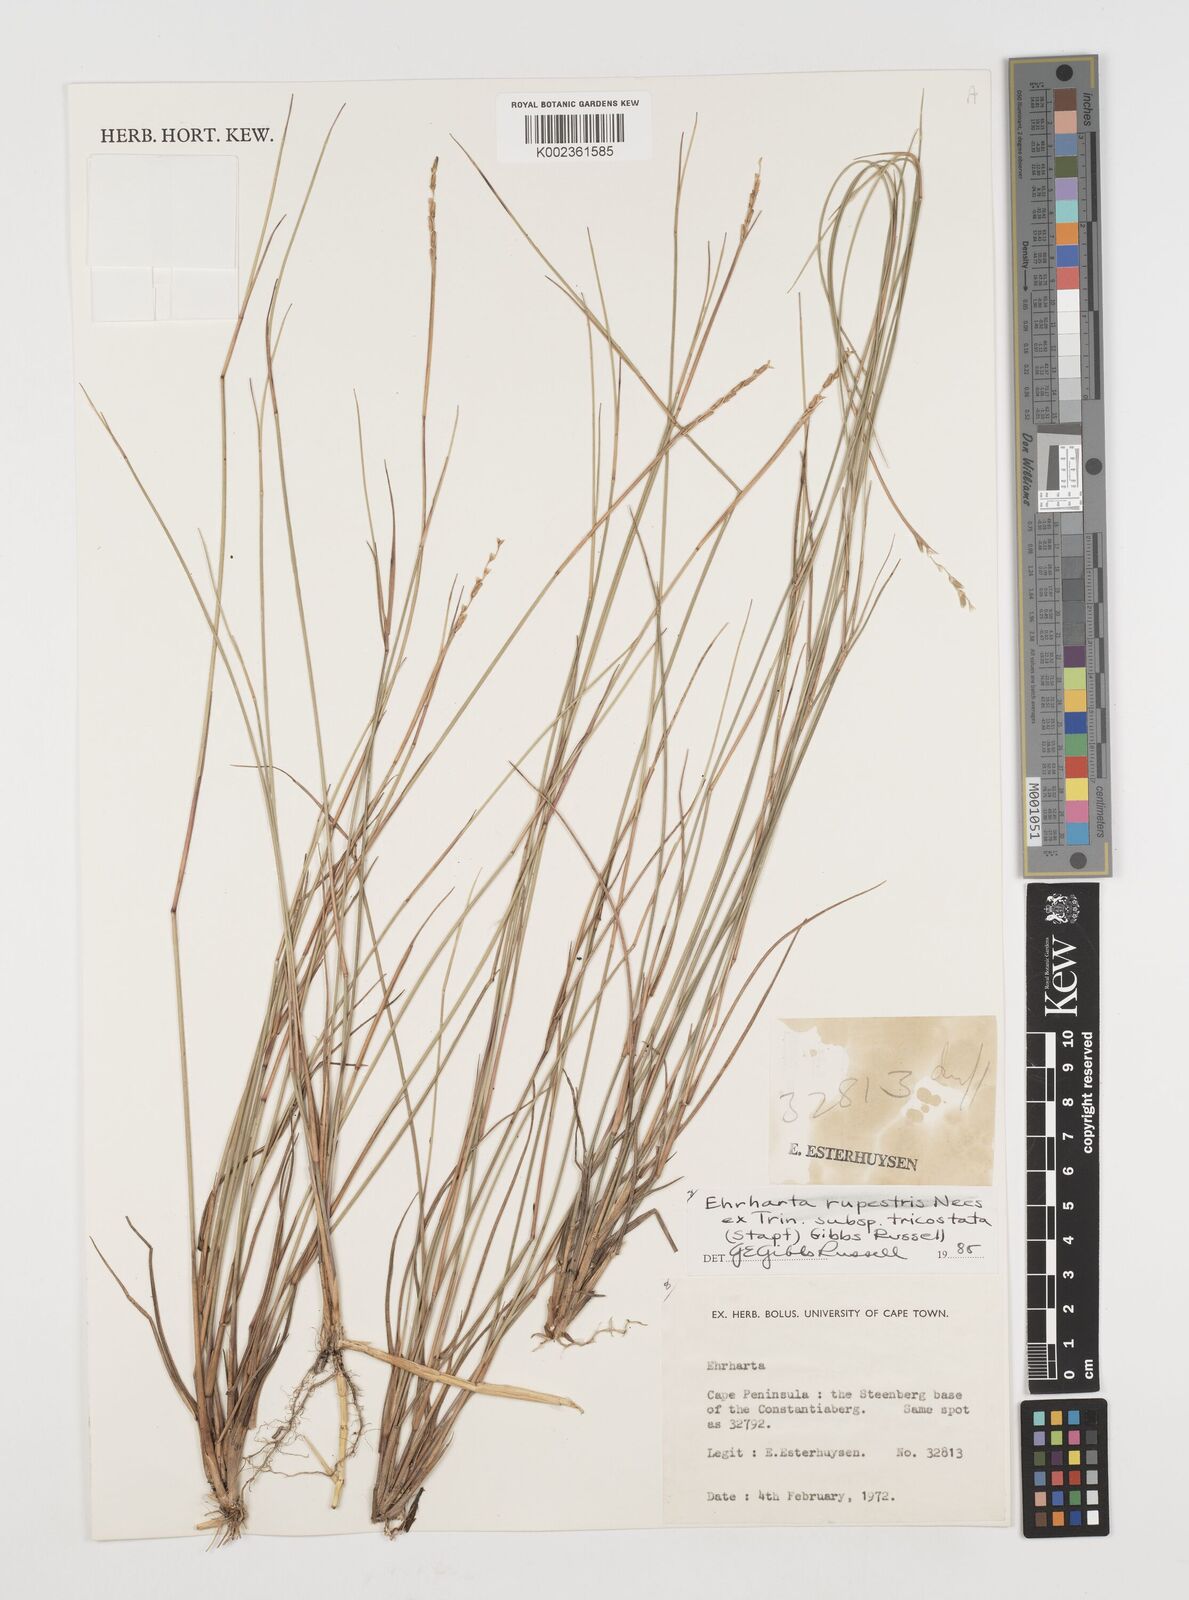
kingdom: Plantae
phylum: Tracheophyta
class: Liliopsida
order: Poales
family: Poaceae
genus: Ehrharta
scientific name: Ehrharta rupestris
